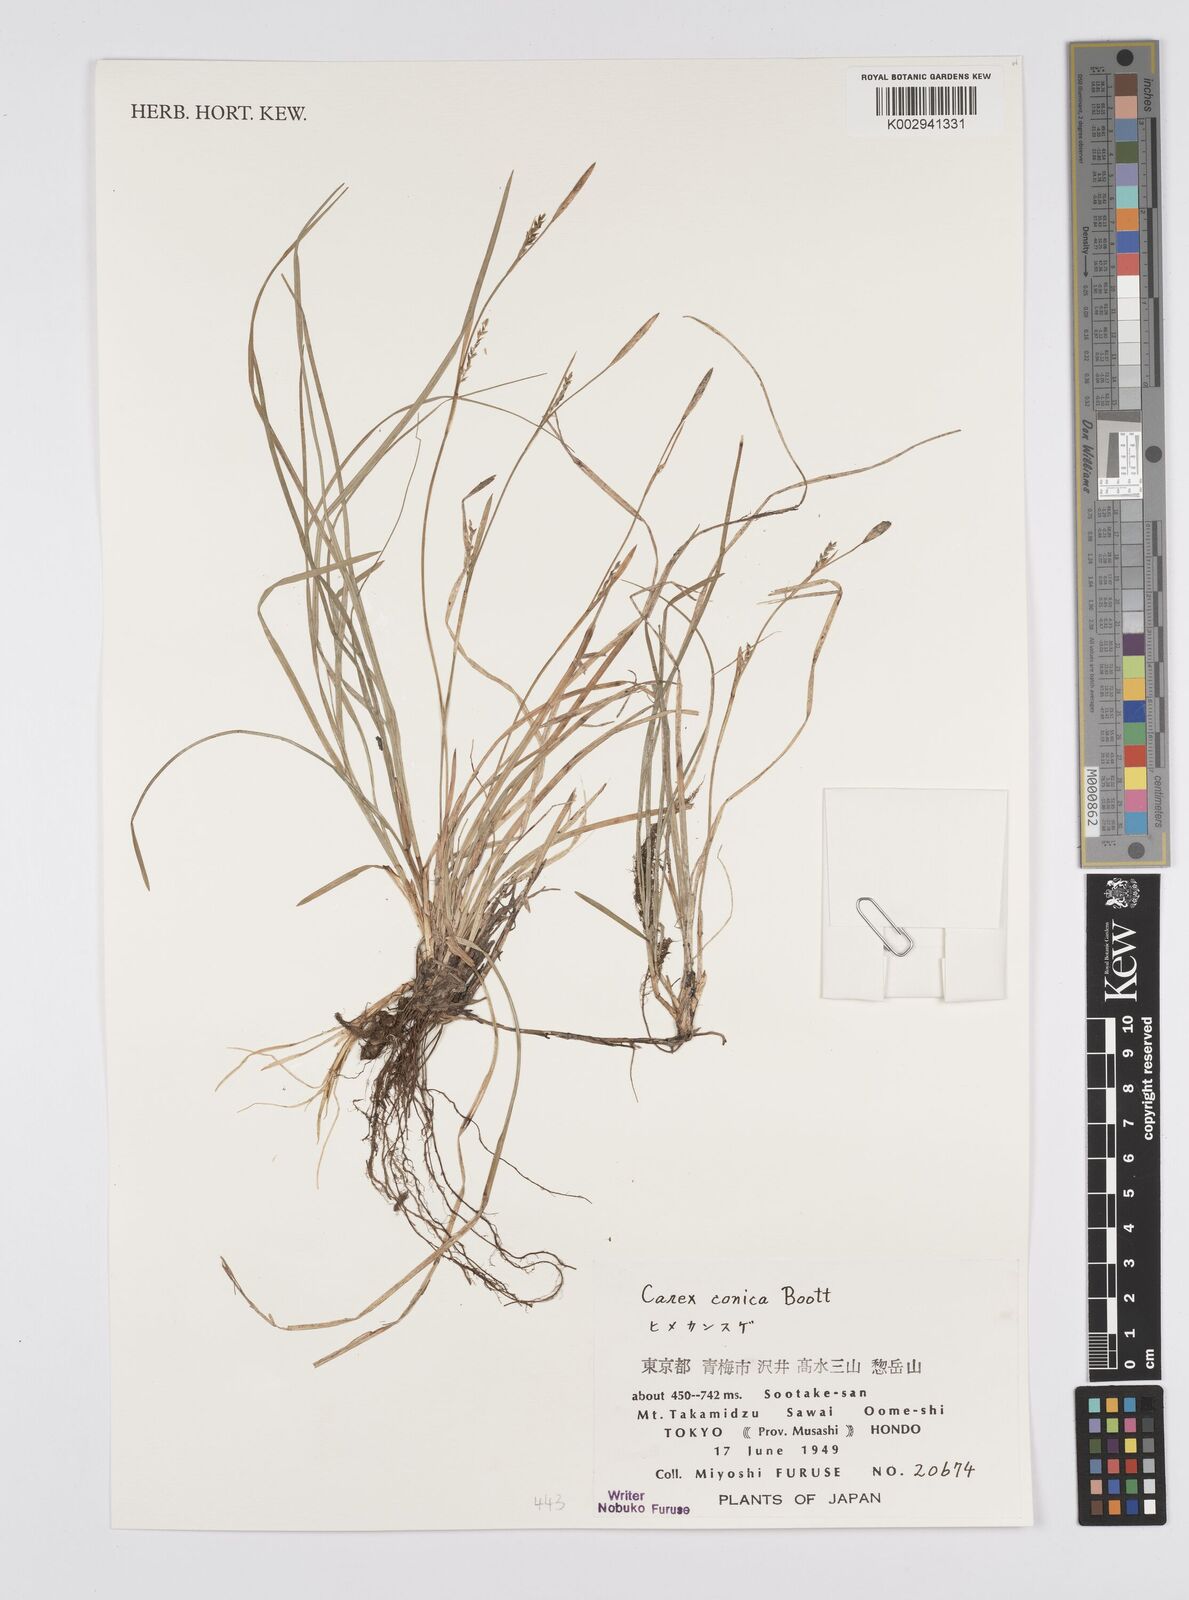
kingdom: Plantae
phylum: Tracheophyta
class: Liliopsida
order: Poales
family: Cyperaceae
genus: Carex
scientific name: Carex conica
